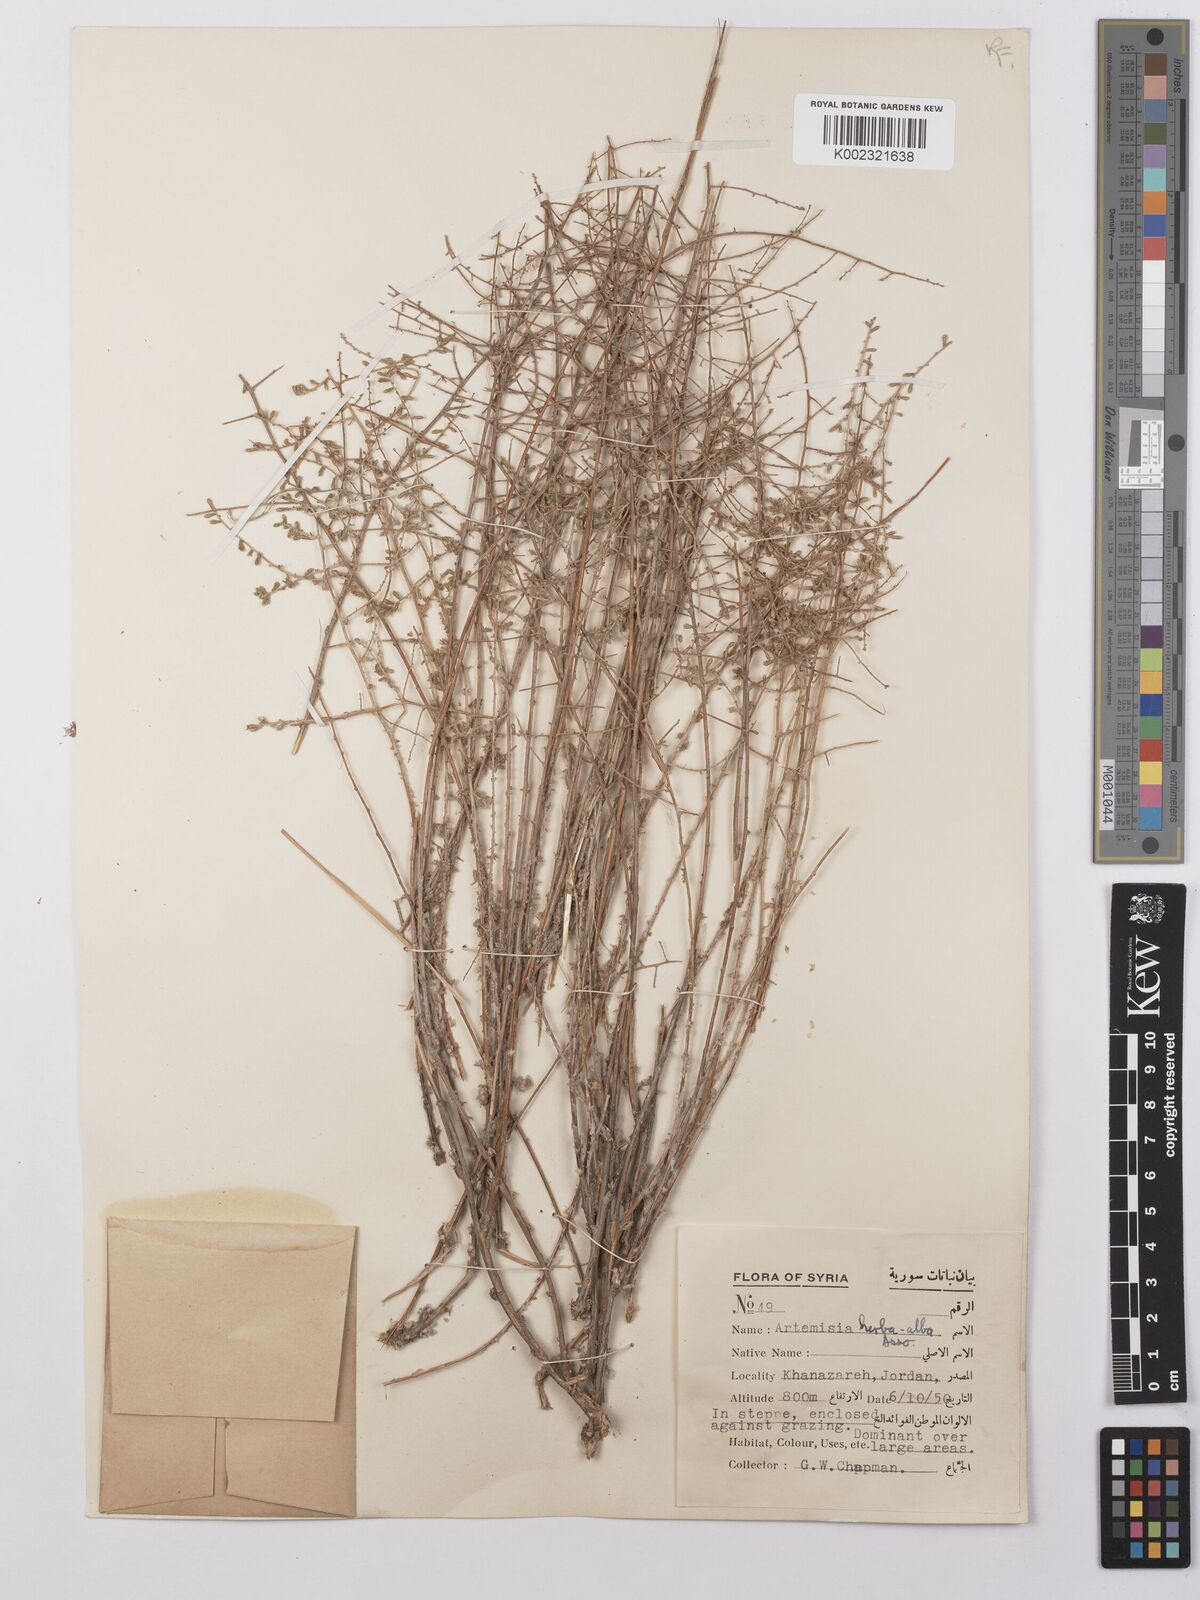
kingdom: Plantae
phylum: Tracheophyta
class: Magnoliopsida
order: Asterales
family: Asteraceae
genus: Artemisia
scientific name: Artemisia herba-alba
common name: White wormwood
